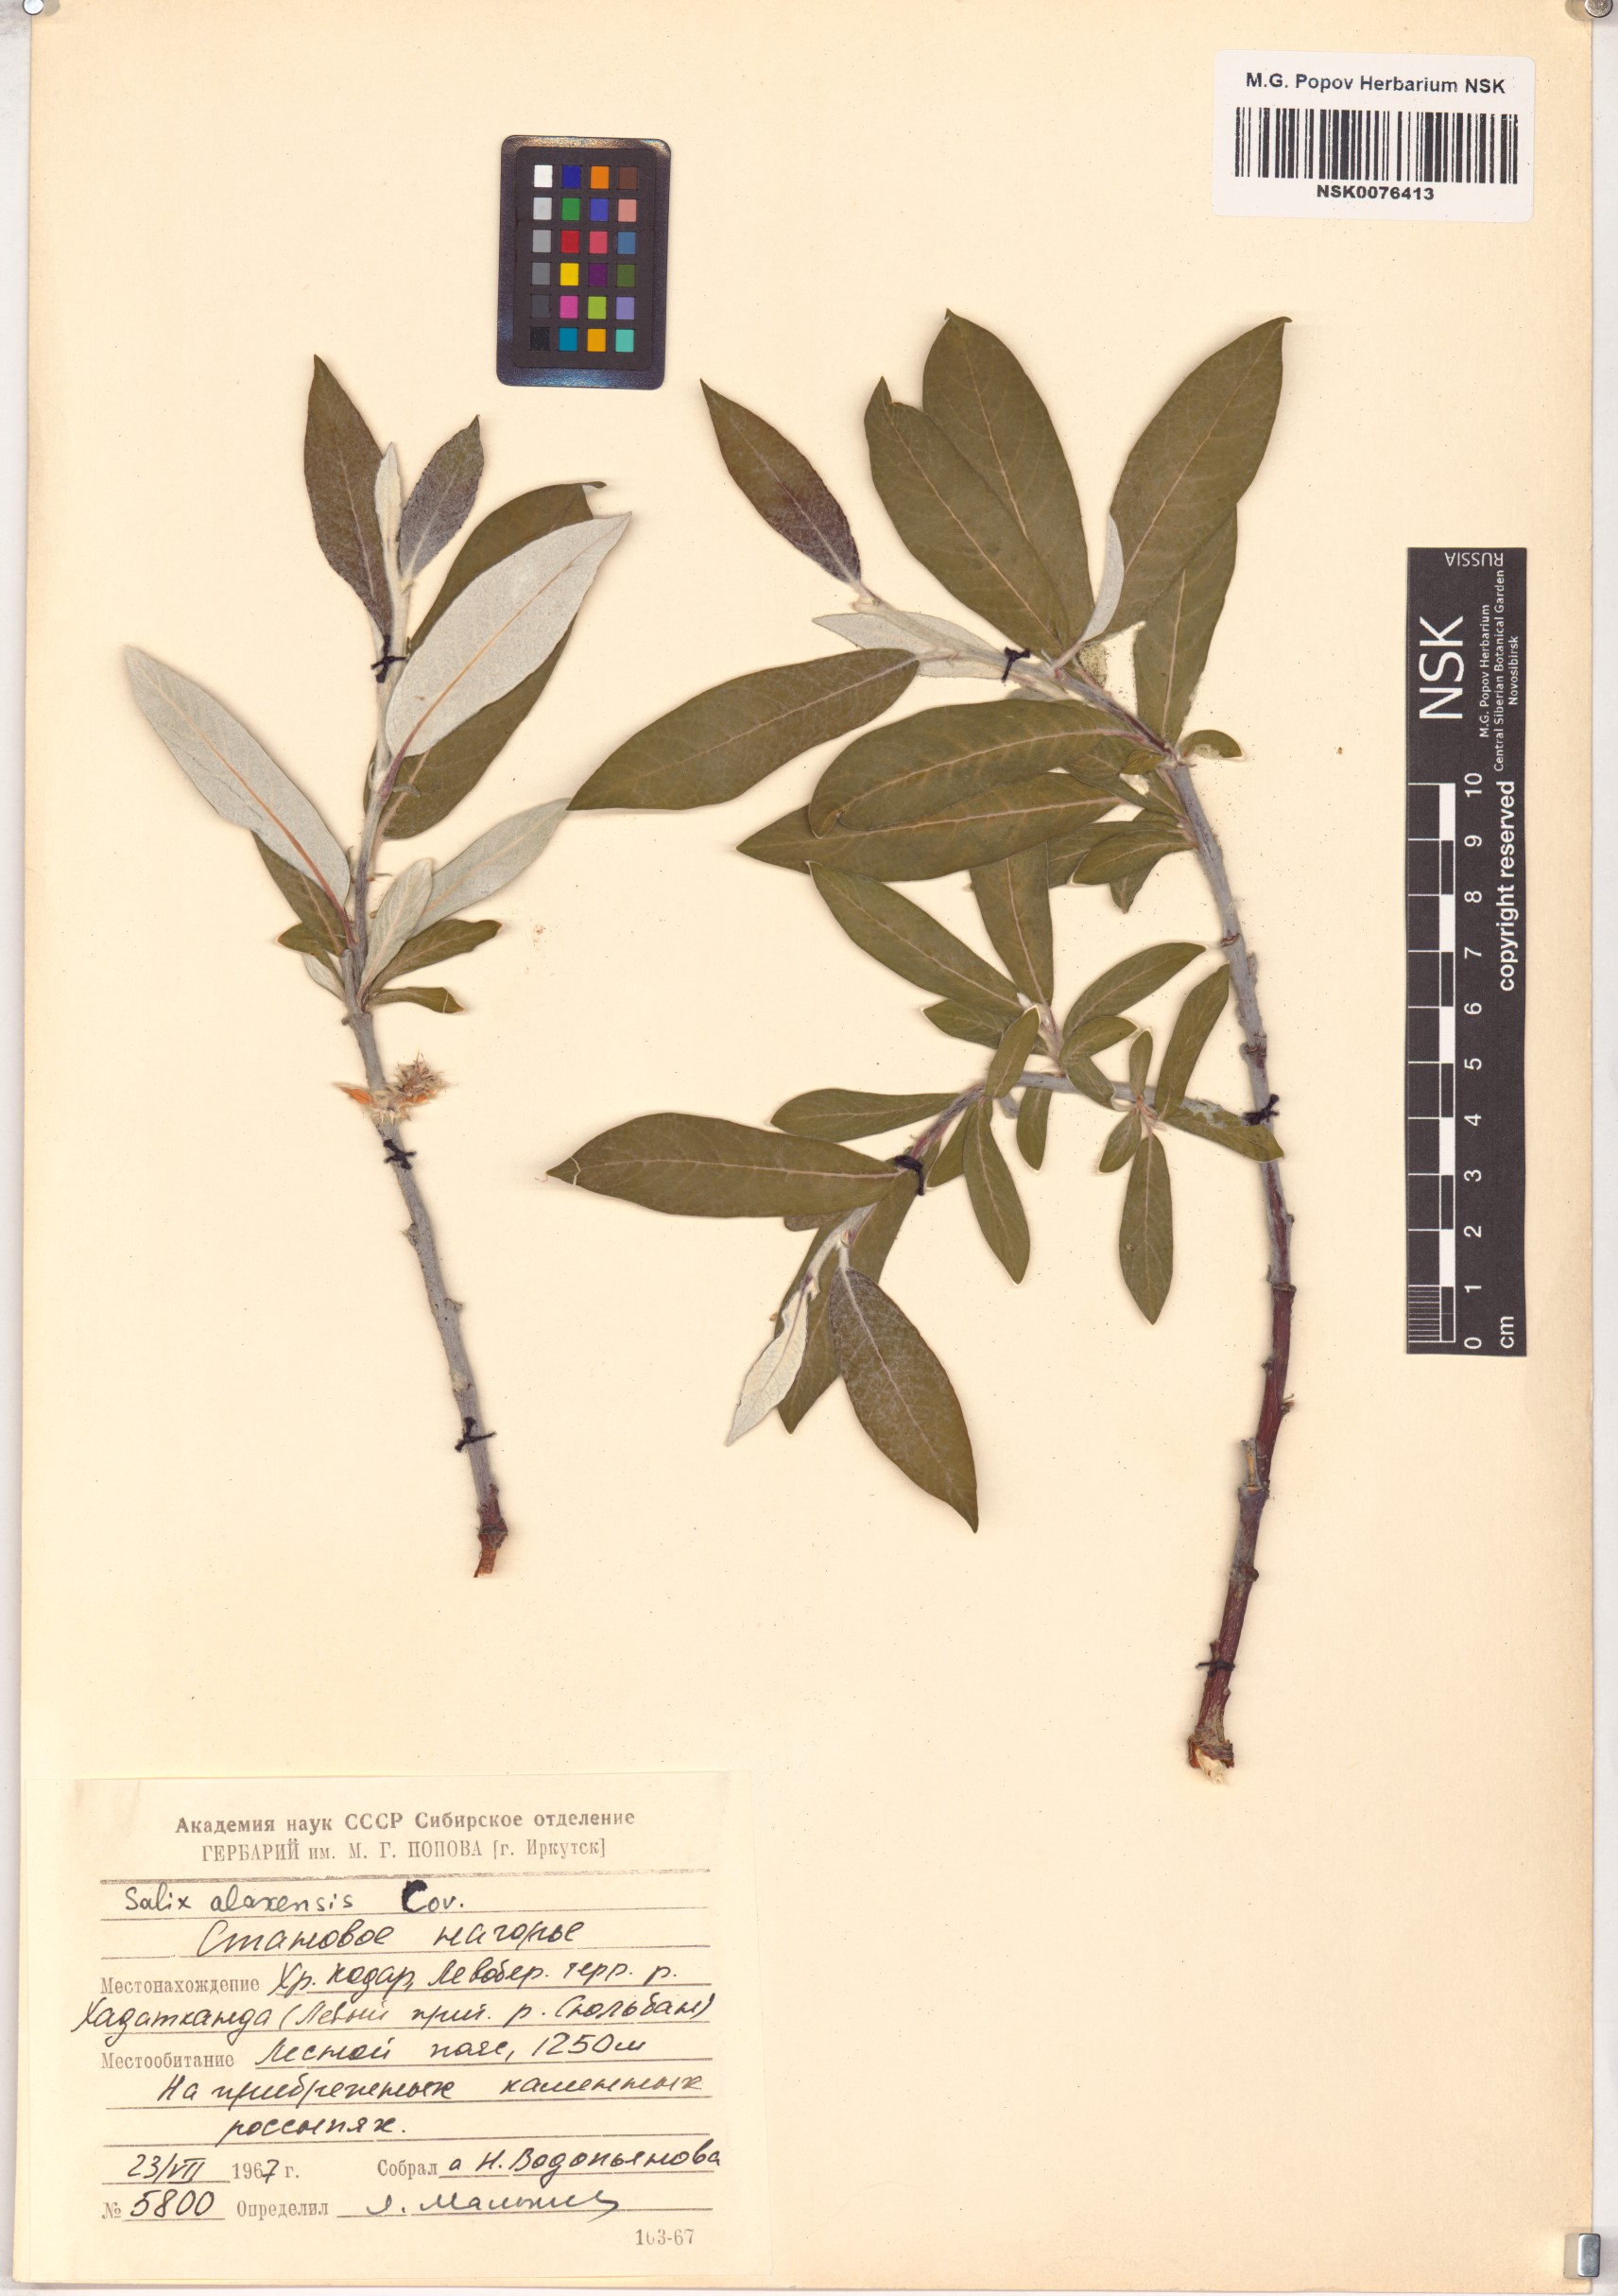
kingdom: Plantae
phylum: Tracheophyta
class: Magnoliopsida
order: Malpighiales
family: Salicaceae
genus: Salix
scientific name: Salix alaxensis
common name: Feltleaf willow
